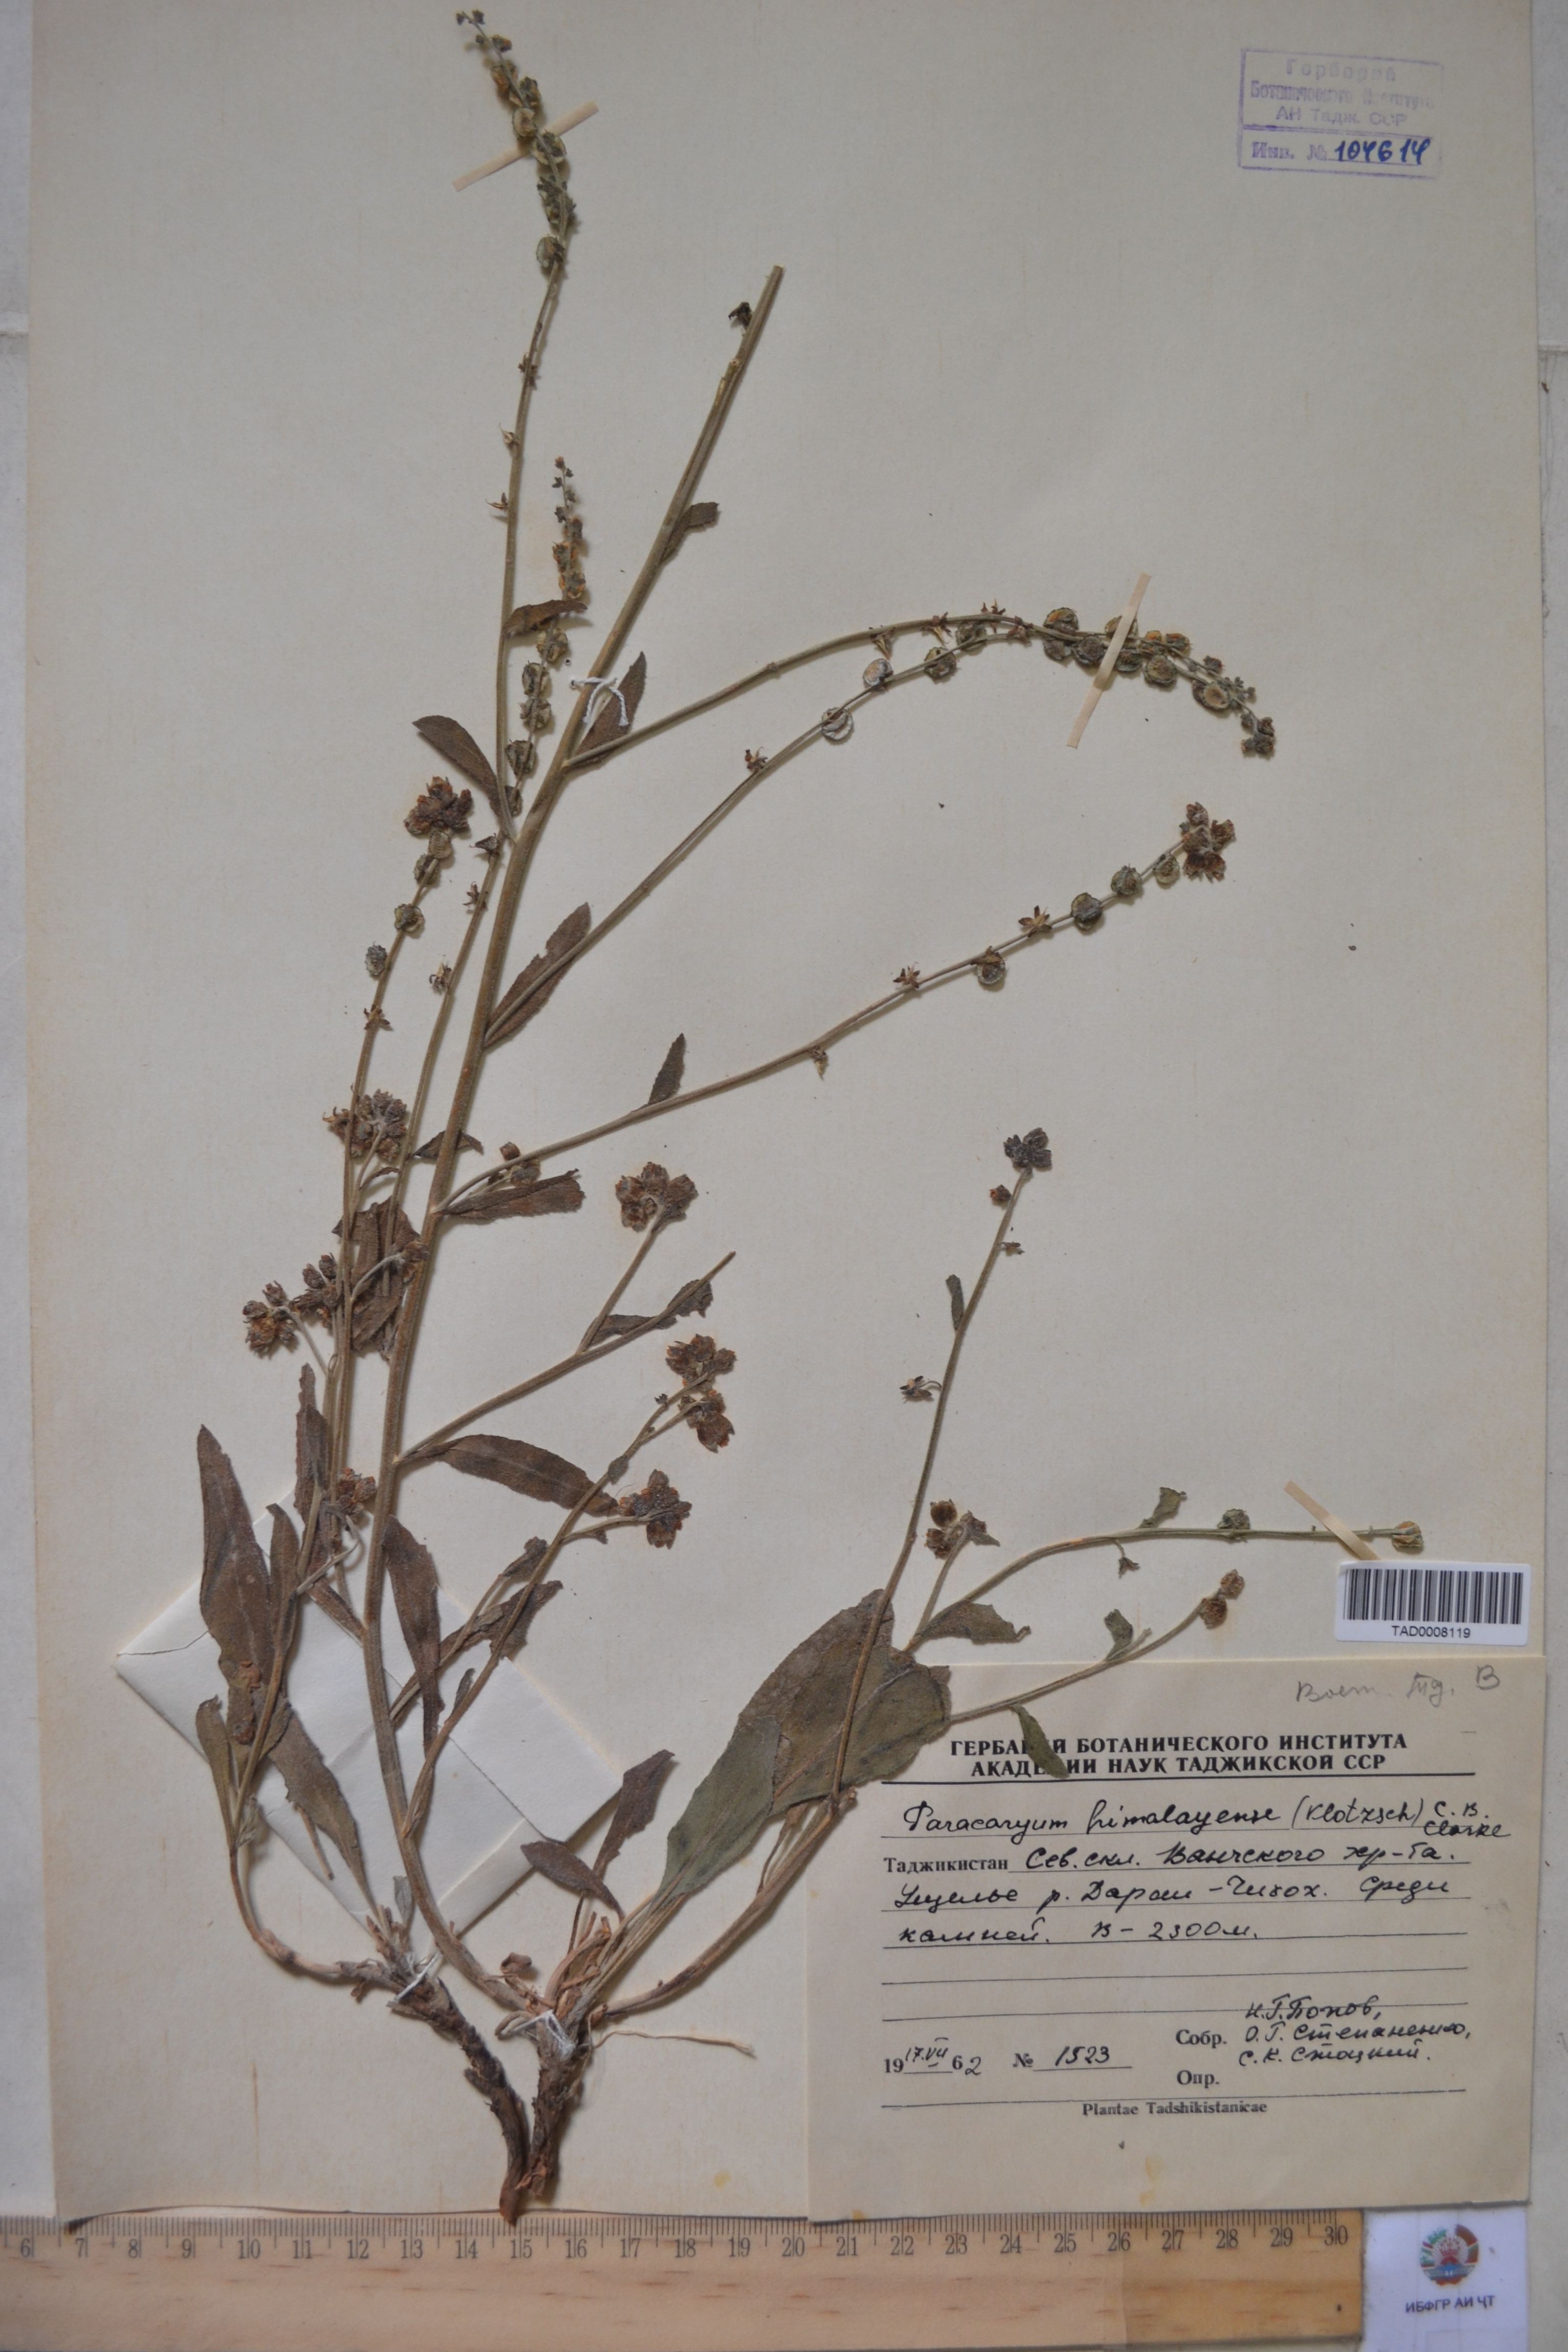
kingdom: Plantae
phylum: Tracheophyta
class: Magnoliopsida
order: Boraginales
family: Boraginaceae
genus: Paracaryum
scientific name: Paracaryum himalayense
